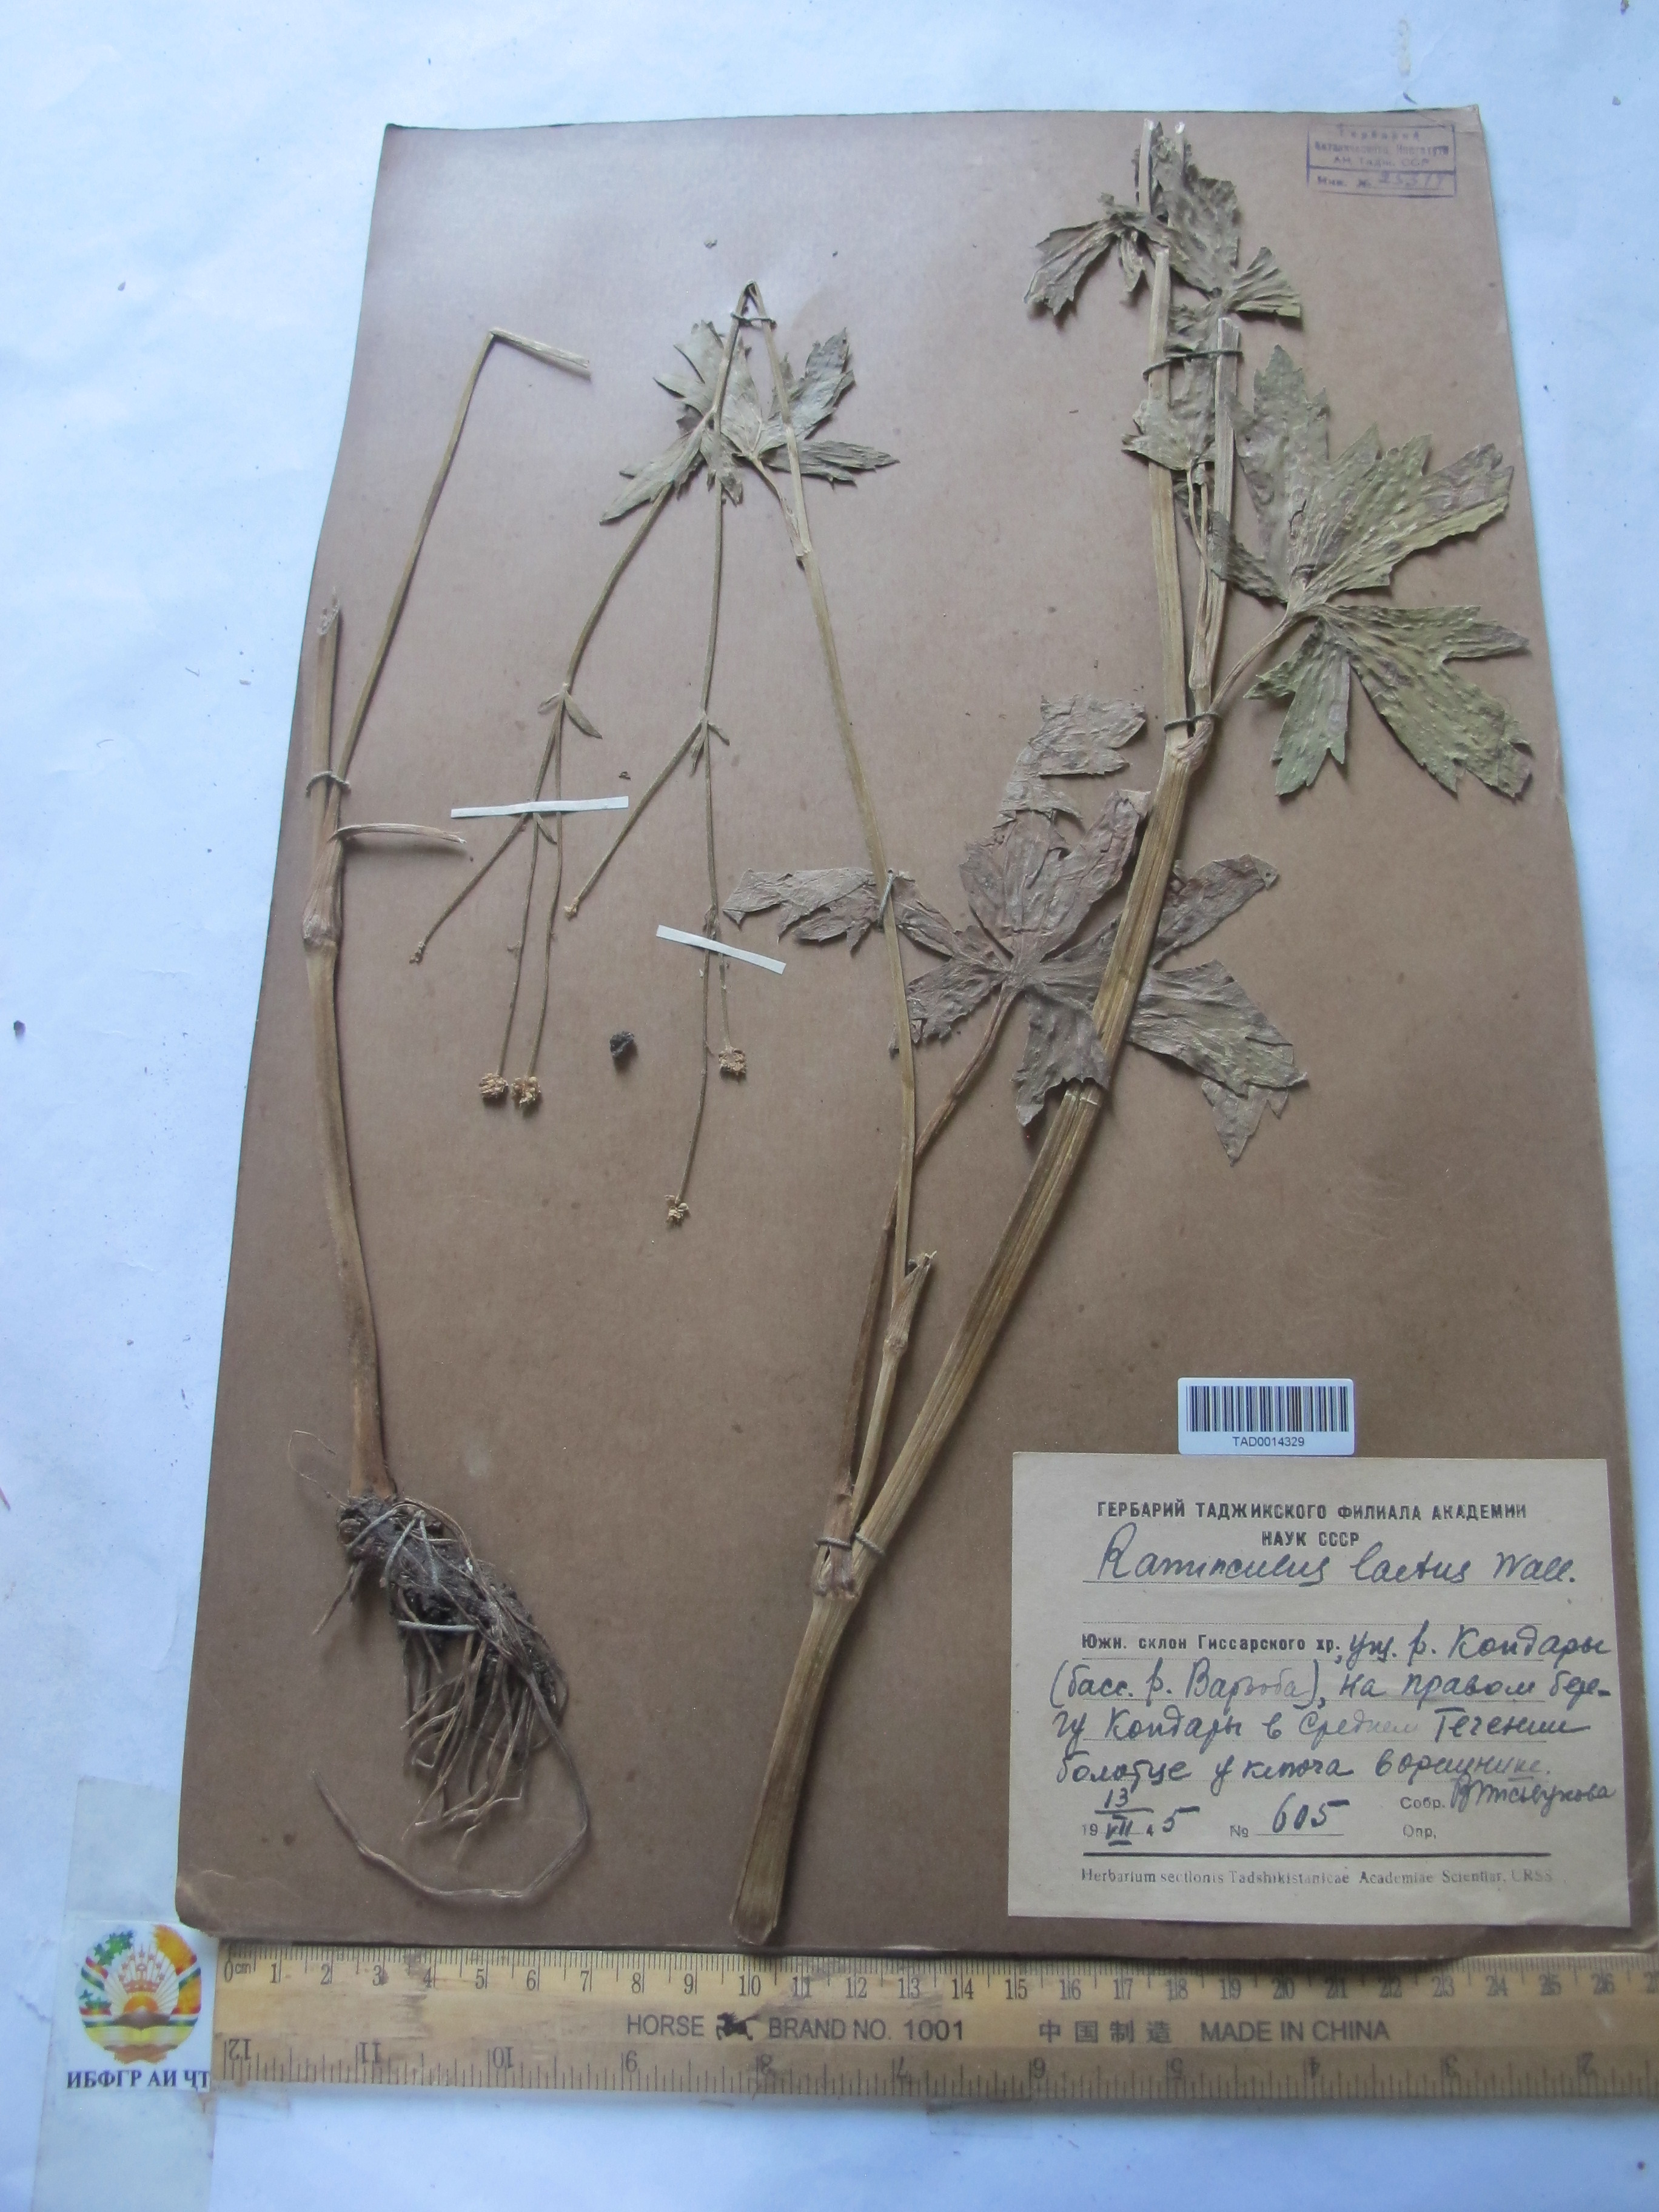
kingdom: Plantae
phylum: Tracheophyta
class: Magnoliopsida
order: Ranunculales
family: Ranunculaceae
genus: Ranunculus
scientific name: Ranunculus distans
